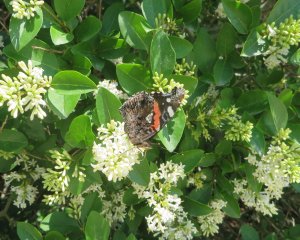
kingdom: Animalia
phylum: Arthropoda
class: Insecta
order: Lepidoptera
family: Nymphalidae
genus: Vanessa
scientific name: Vanessa atalanta
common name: Red Admiral
